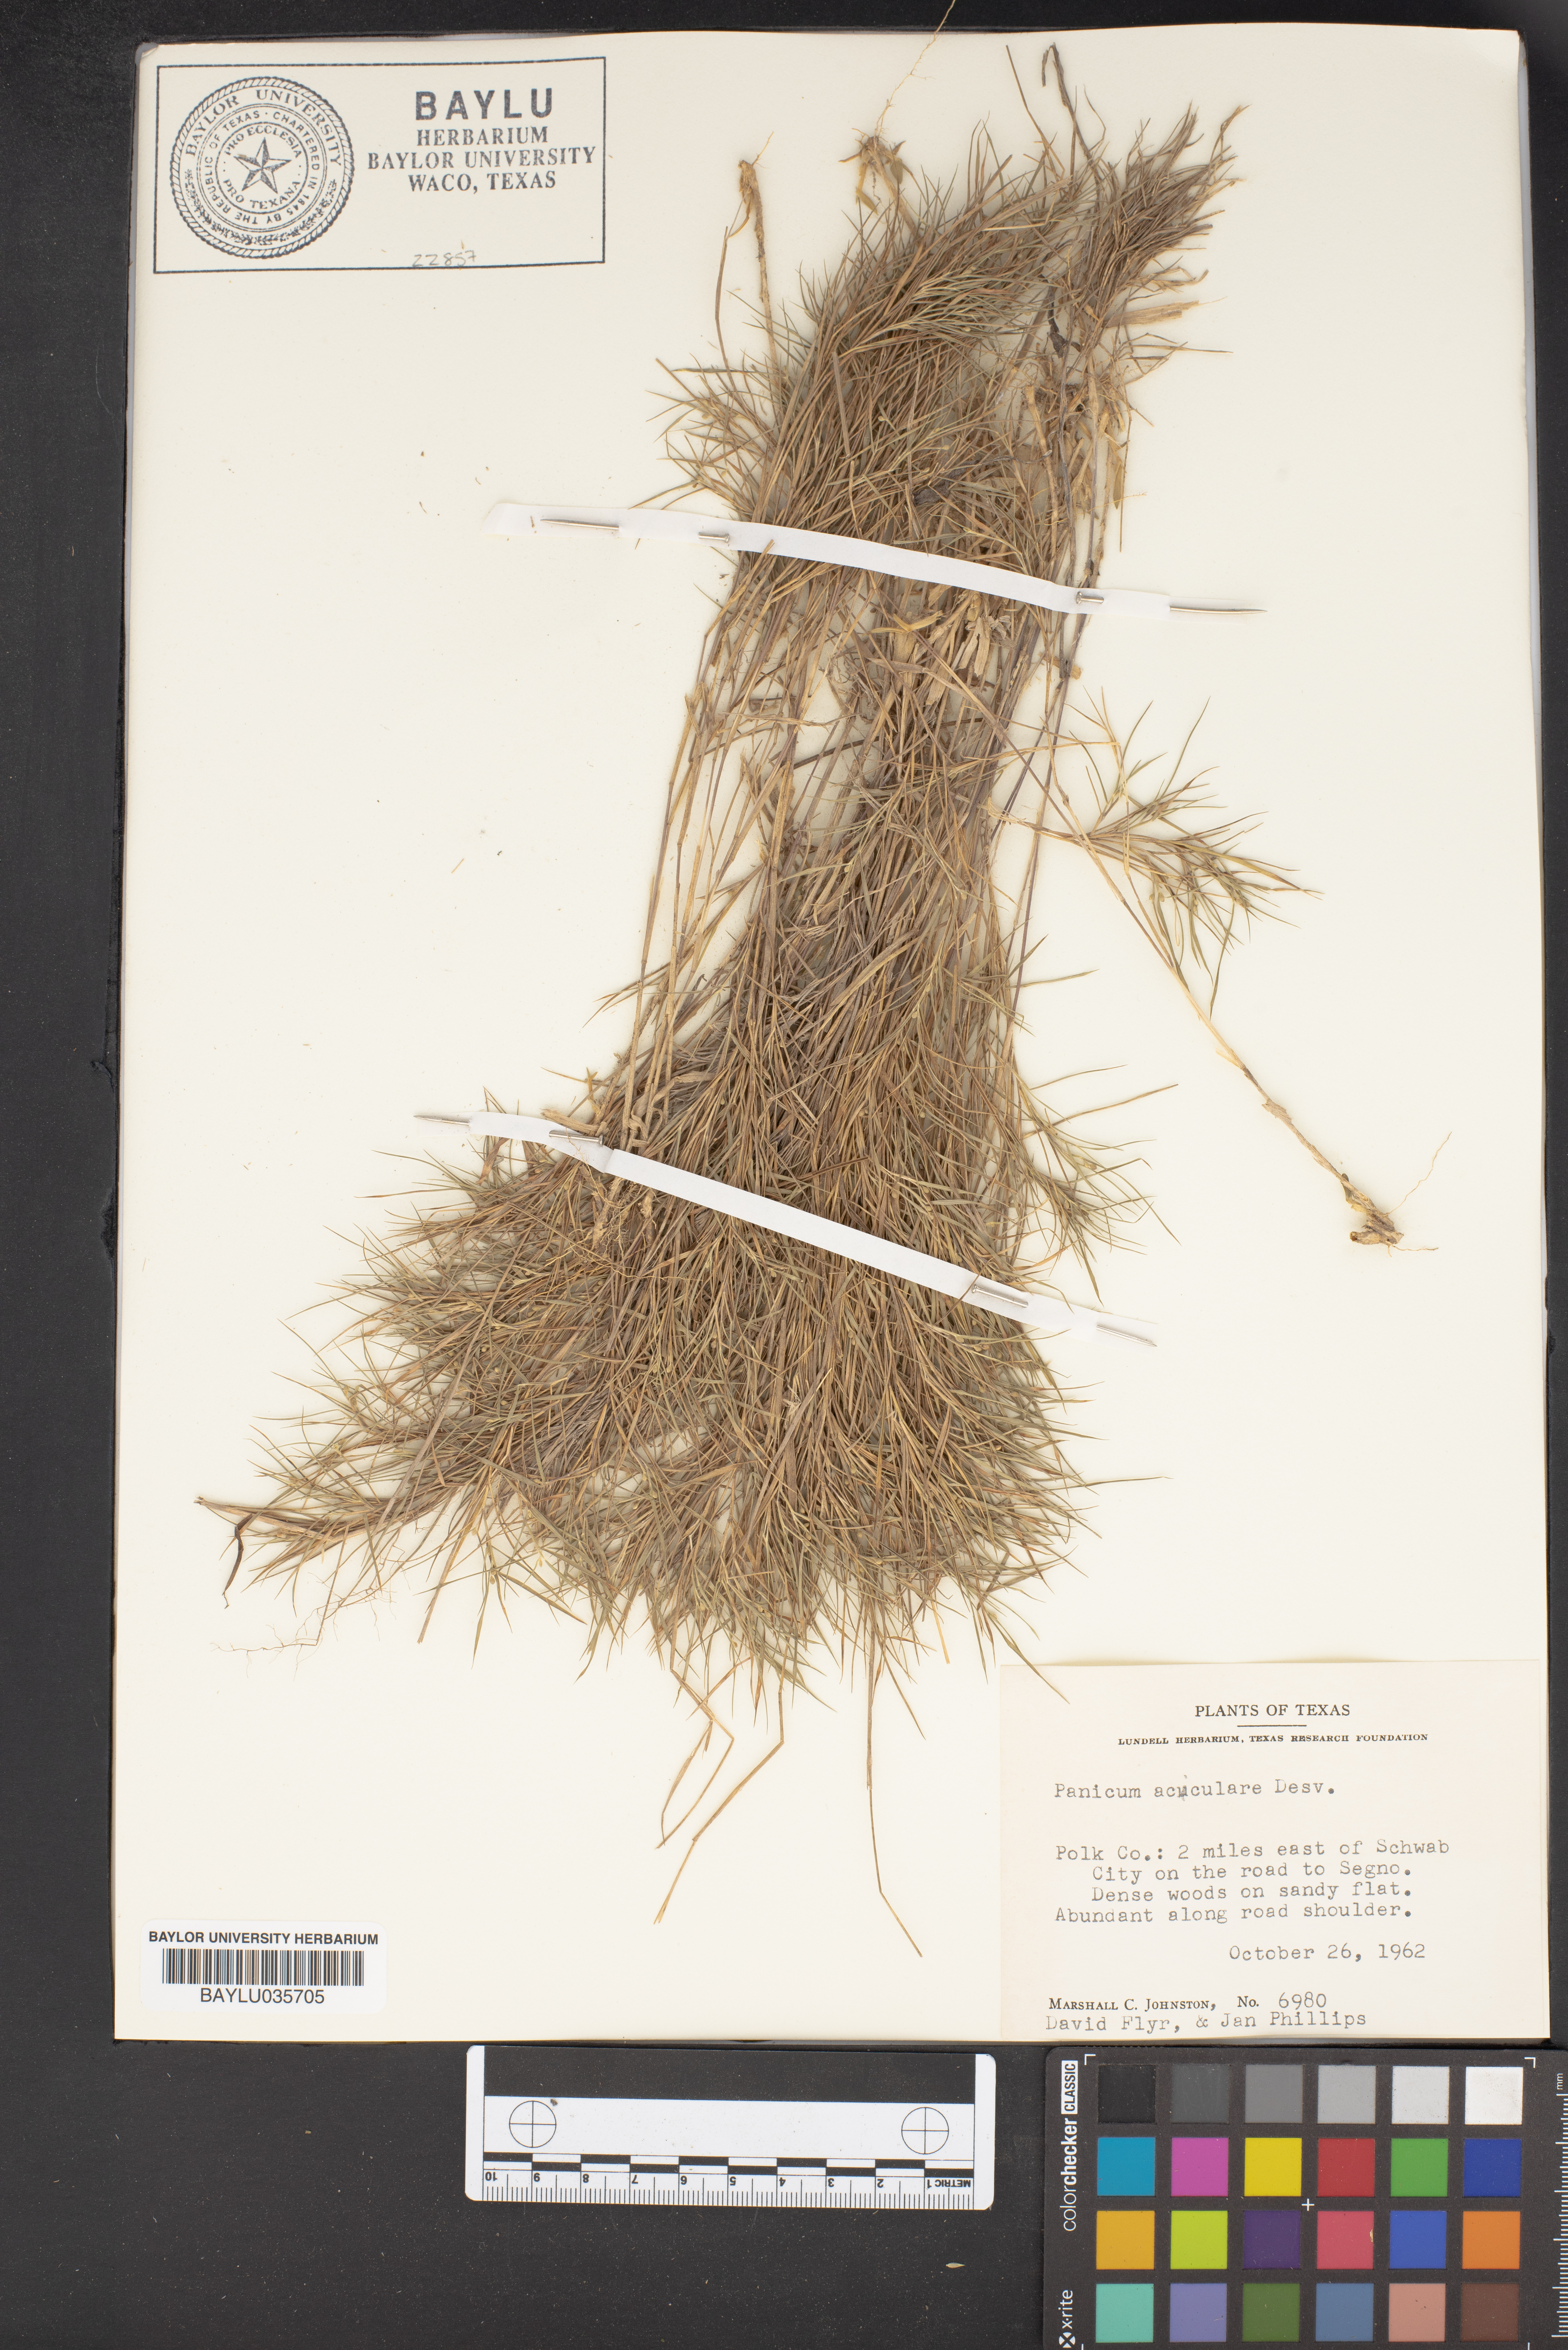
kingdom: Plantae
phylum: Tracheophyta
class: Liliopsida
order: Poales
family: Poaceae
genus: Dichanthelium
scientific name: Dichanthelium aciculare
